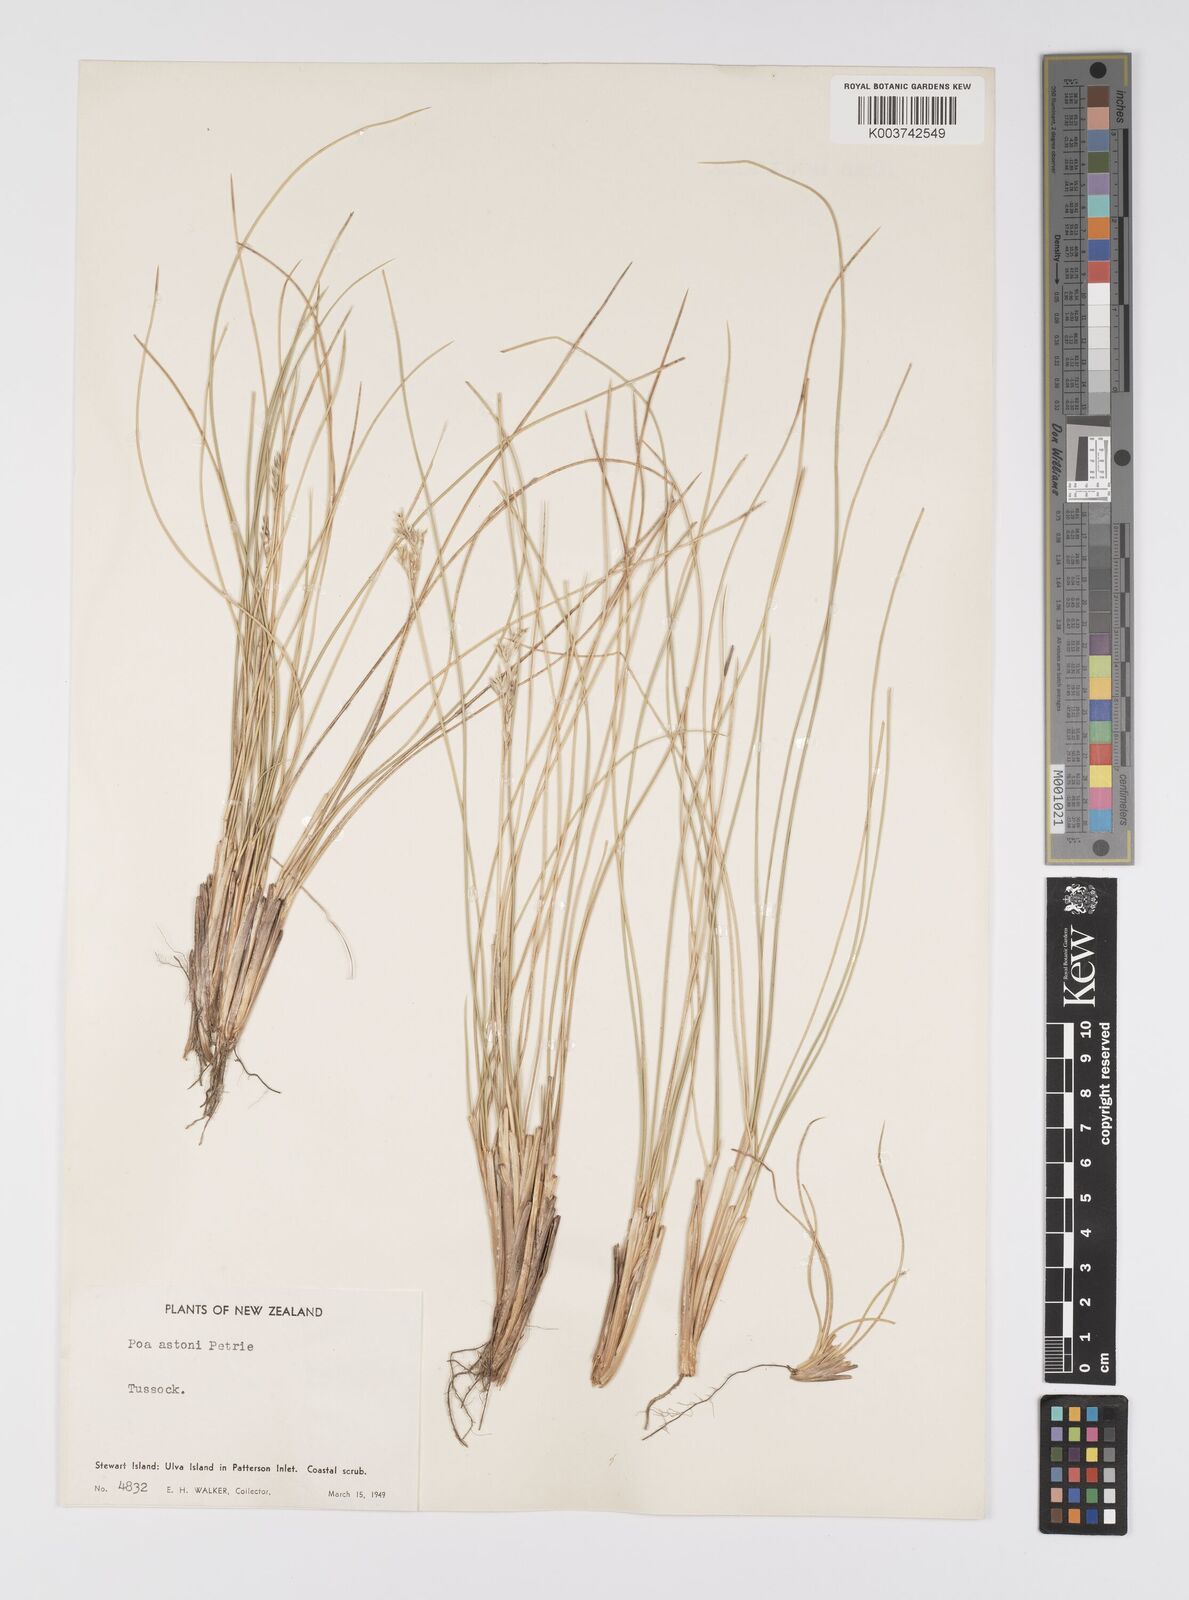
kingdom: Plantae
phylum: Tracheophyta
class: Liliopsida
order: Poales
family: Poaceae
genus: Poa
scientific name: Poa astonii
